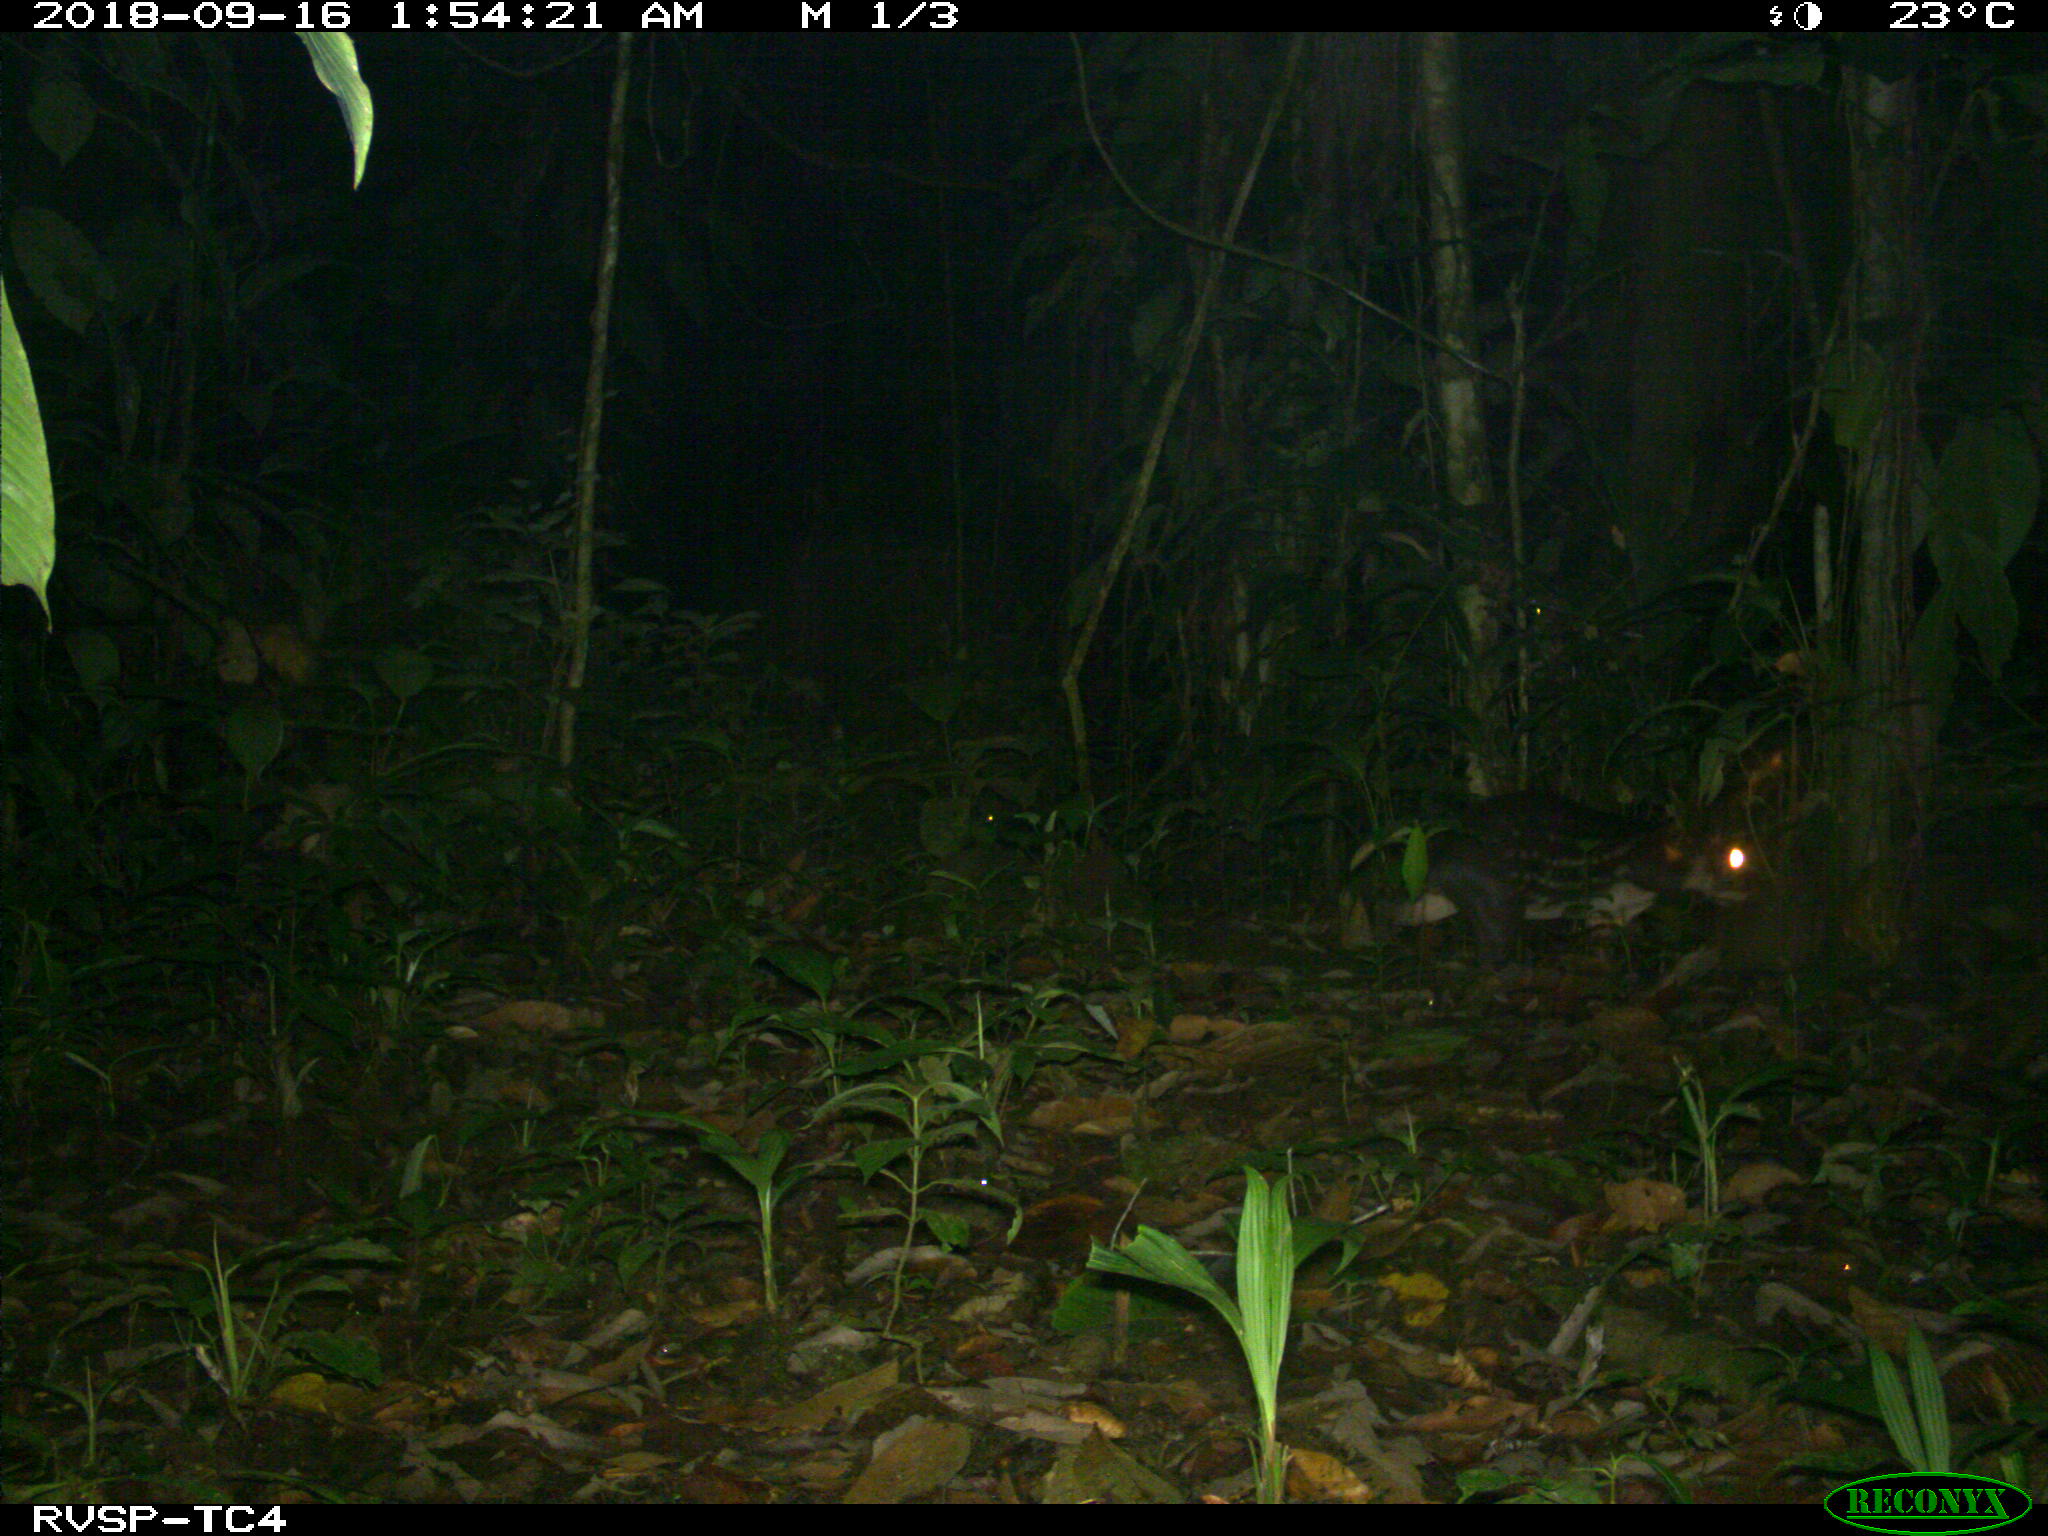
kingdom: Animalia
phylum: Chordata
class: Mammalia
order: Rodentia
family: Cuniculidae
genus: Cuniculus
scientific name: Cuniculus paca
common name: Lowland paca
